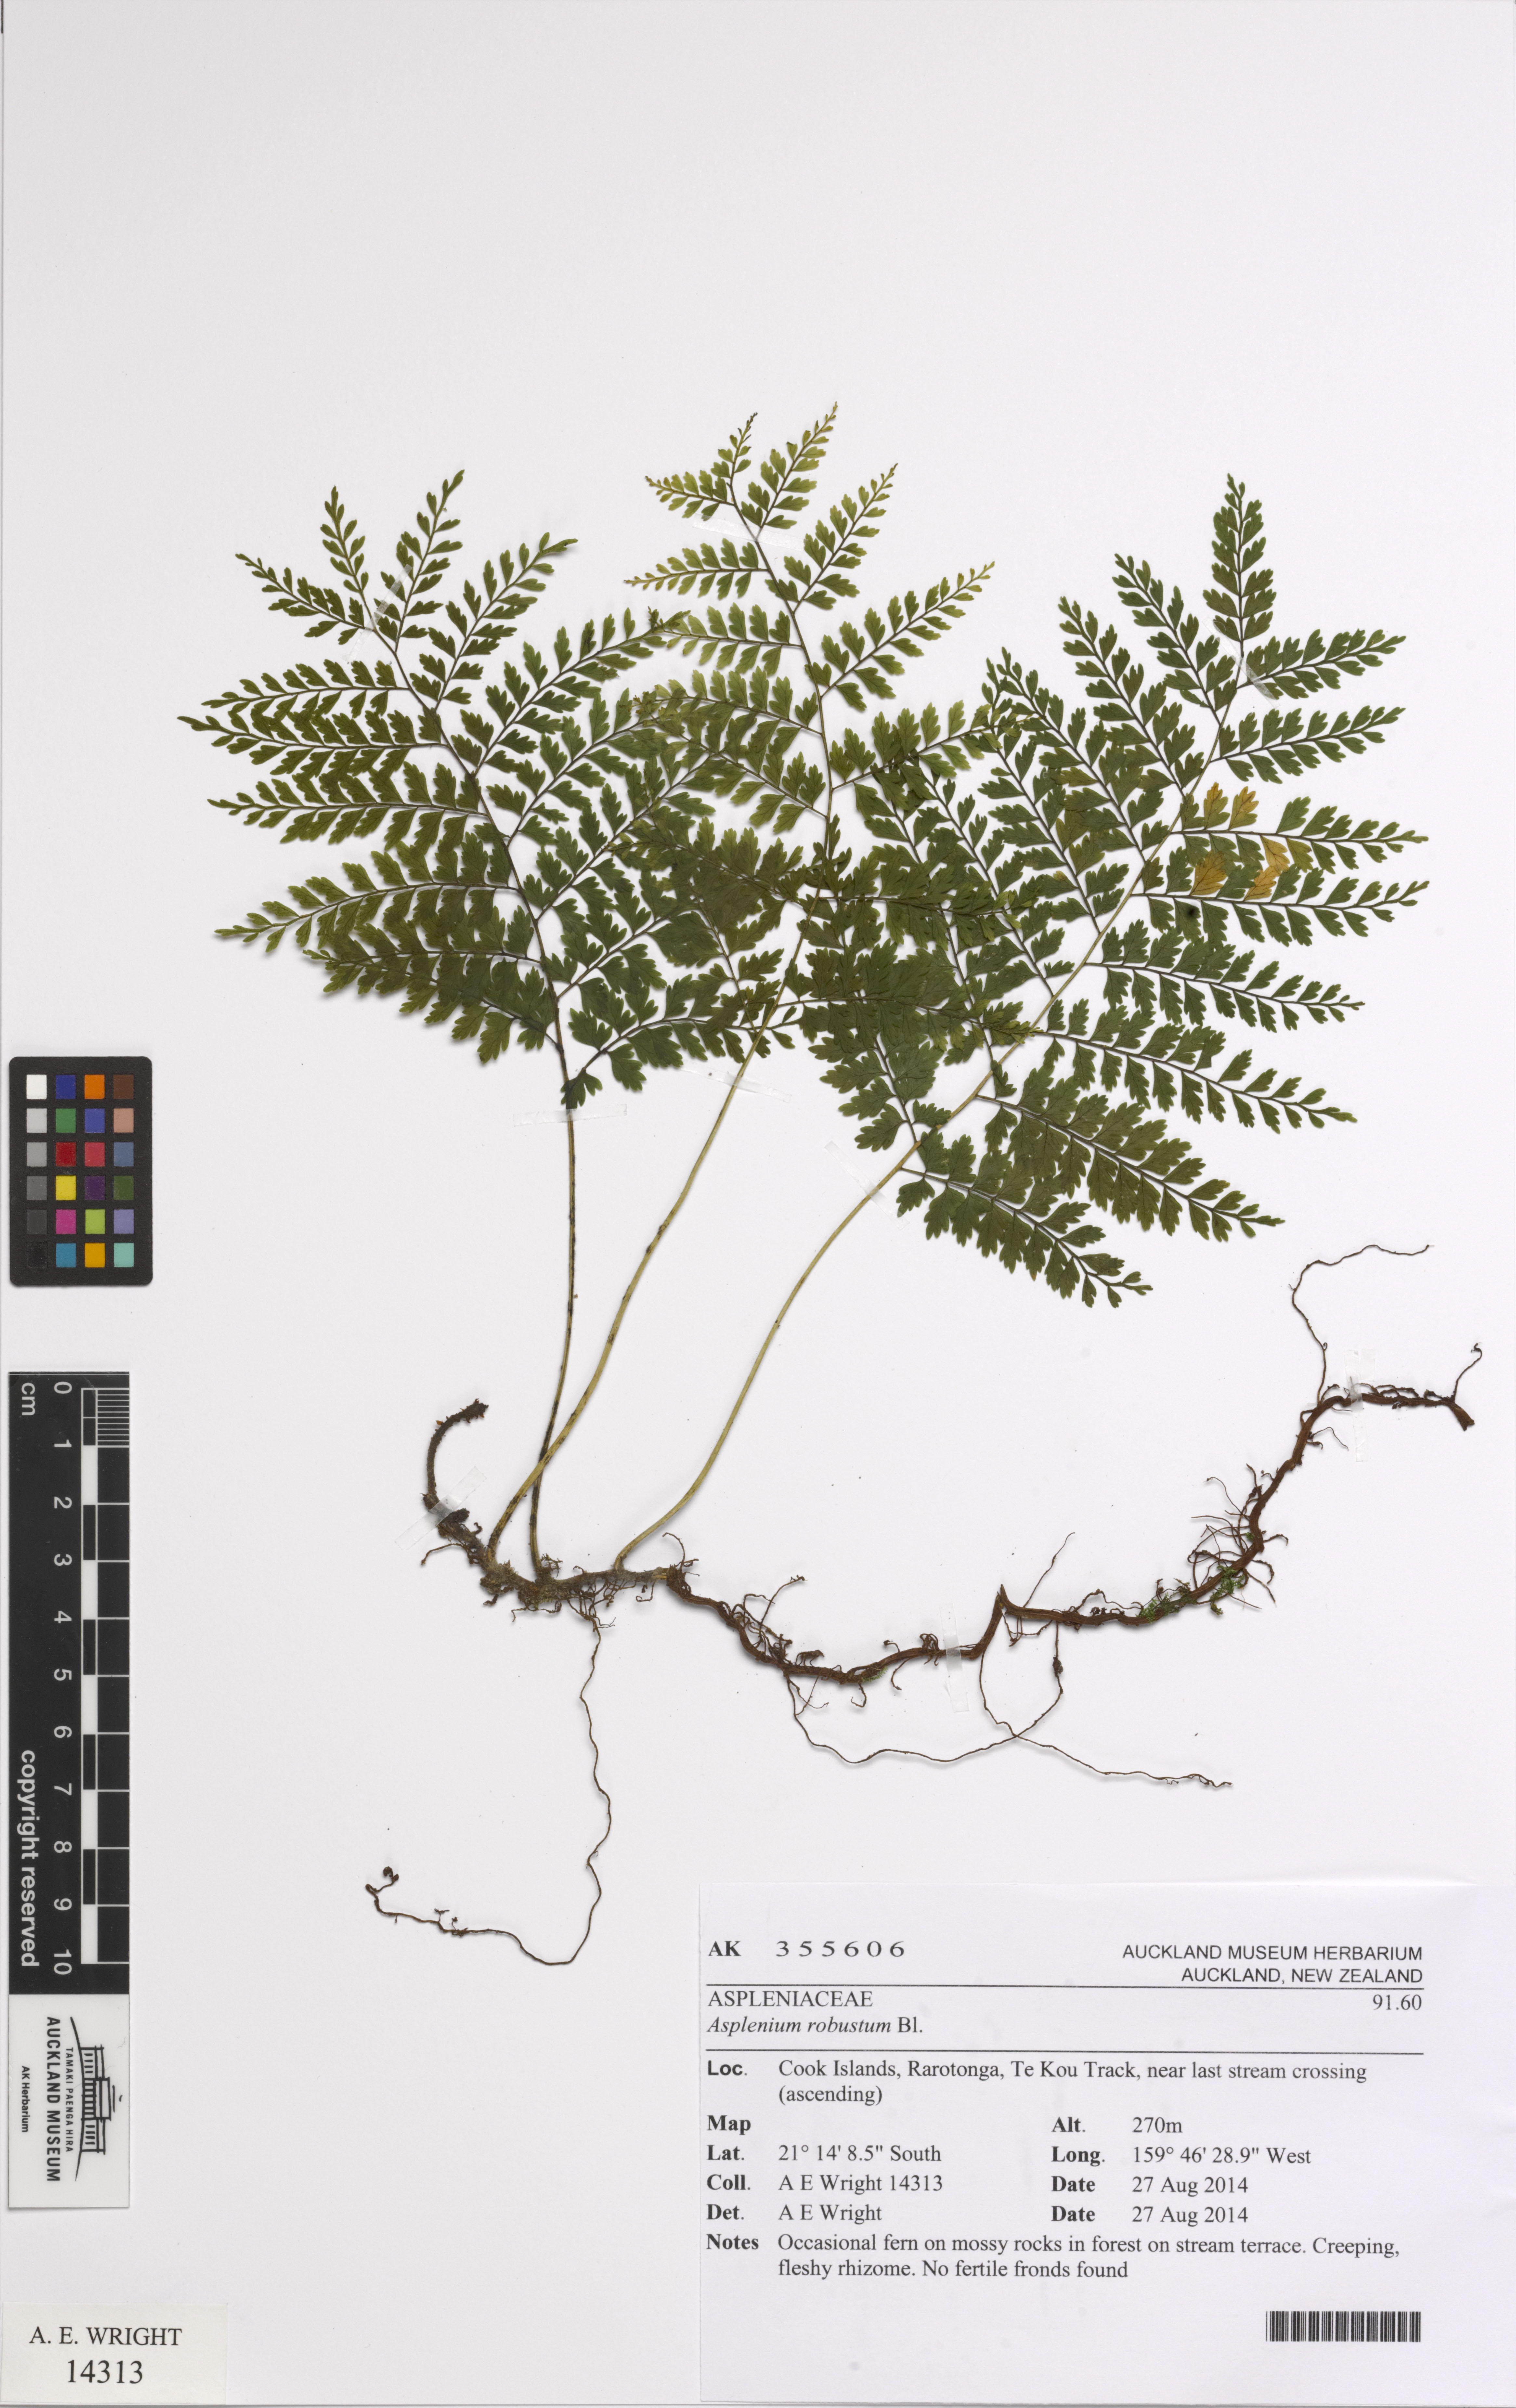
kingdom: Plantae
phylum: Tracheophyta
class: Polypodiopsida
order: Polypodiales
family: Dryopteridaceae
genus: Arthrobotrya
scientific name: Arthrobotrya wilkesiana
